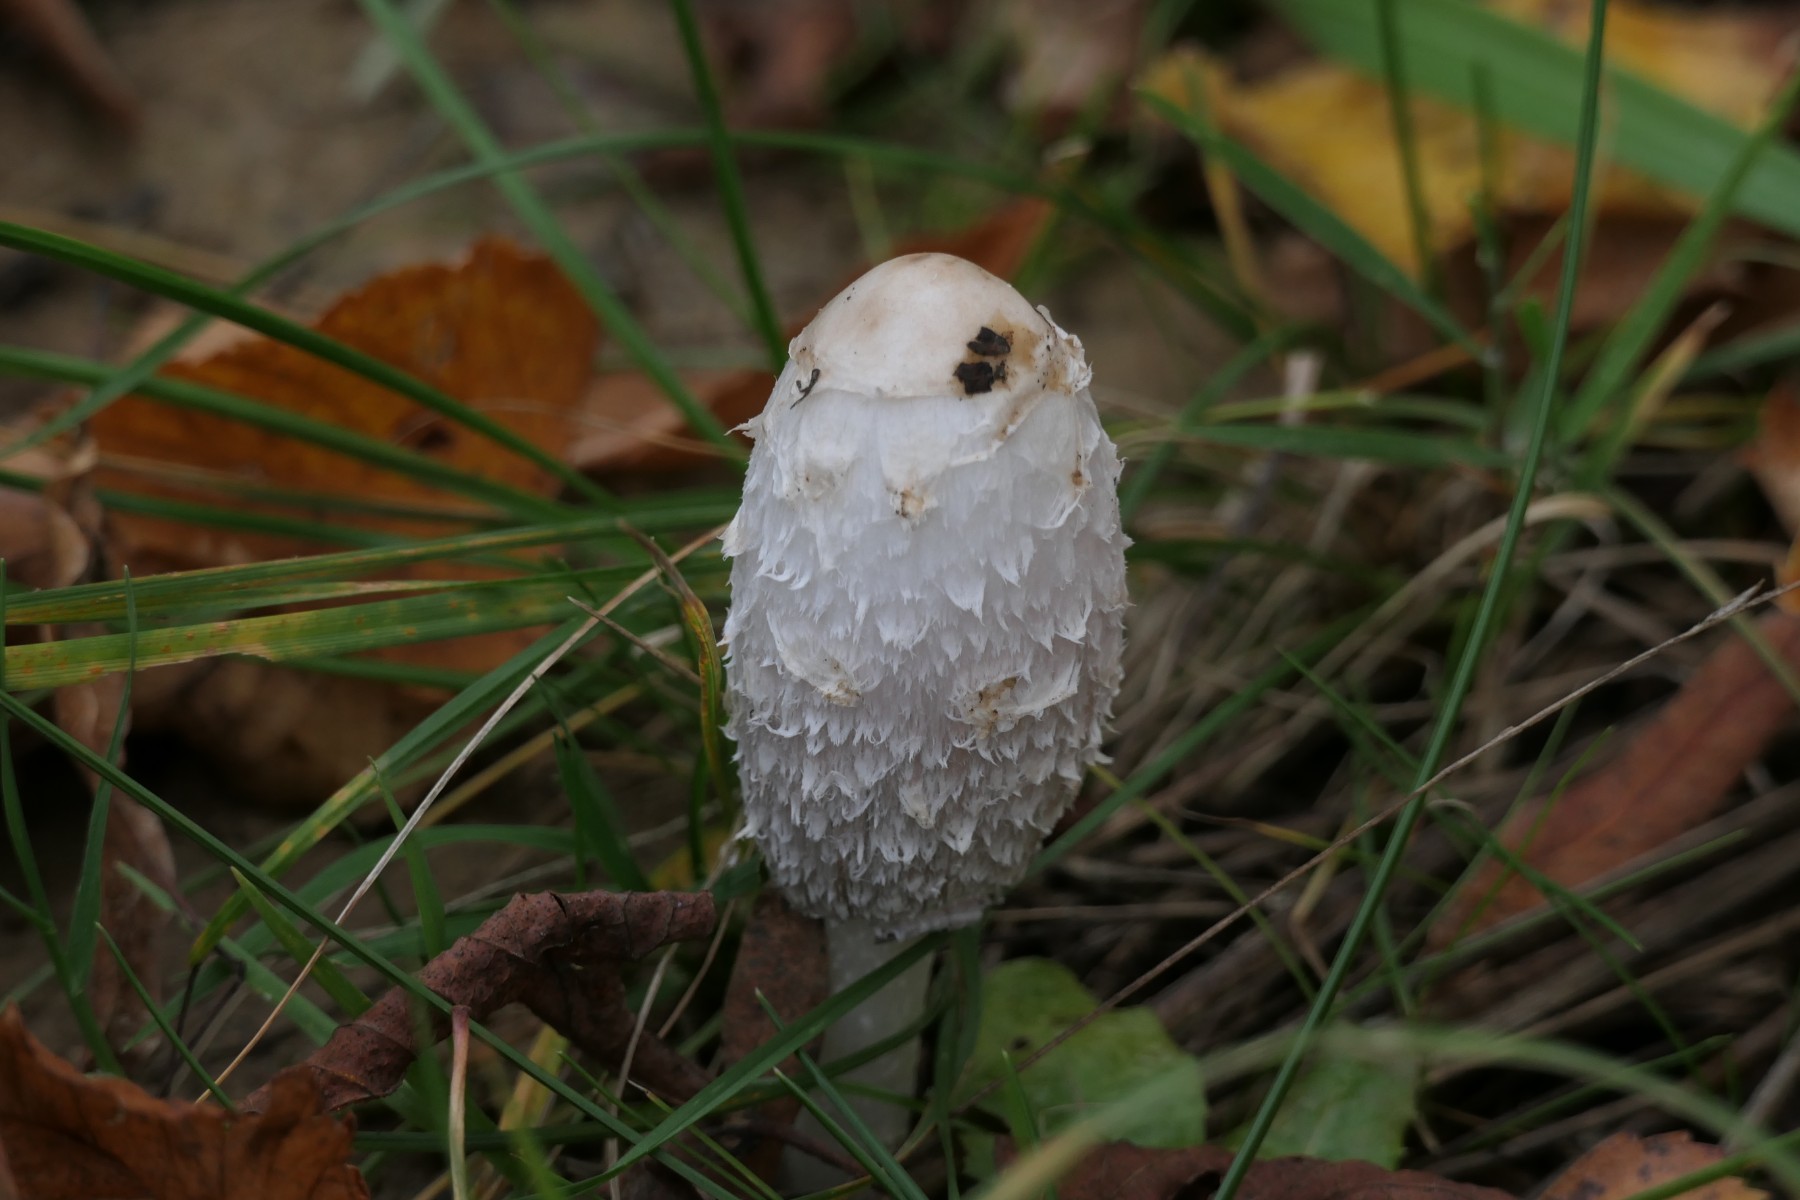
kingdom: Fungi
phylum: Basidiomycota
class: Agaricomycetes
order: Agaricales
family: Agaricaceae
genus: Coprinus
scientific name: Coprinus comatus
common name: stor parykhat
